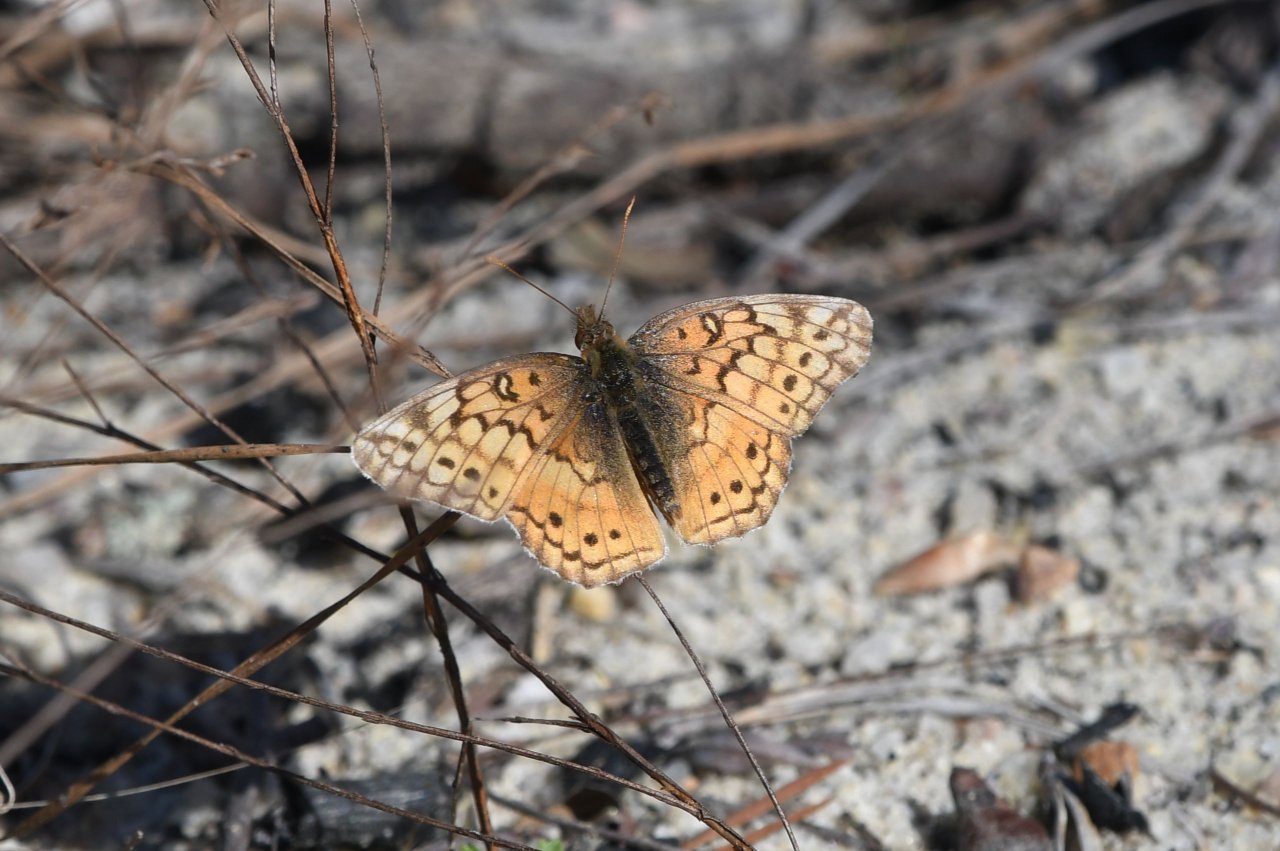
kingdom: Animalia
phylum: Arthropoda
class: Insecta
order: Lepidoptera
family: Nymphalidae
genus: Euptoieta
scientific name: Euptoieta claudia
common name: Variegated Fritillary
